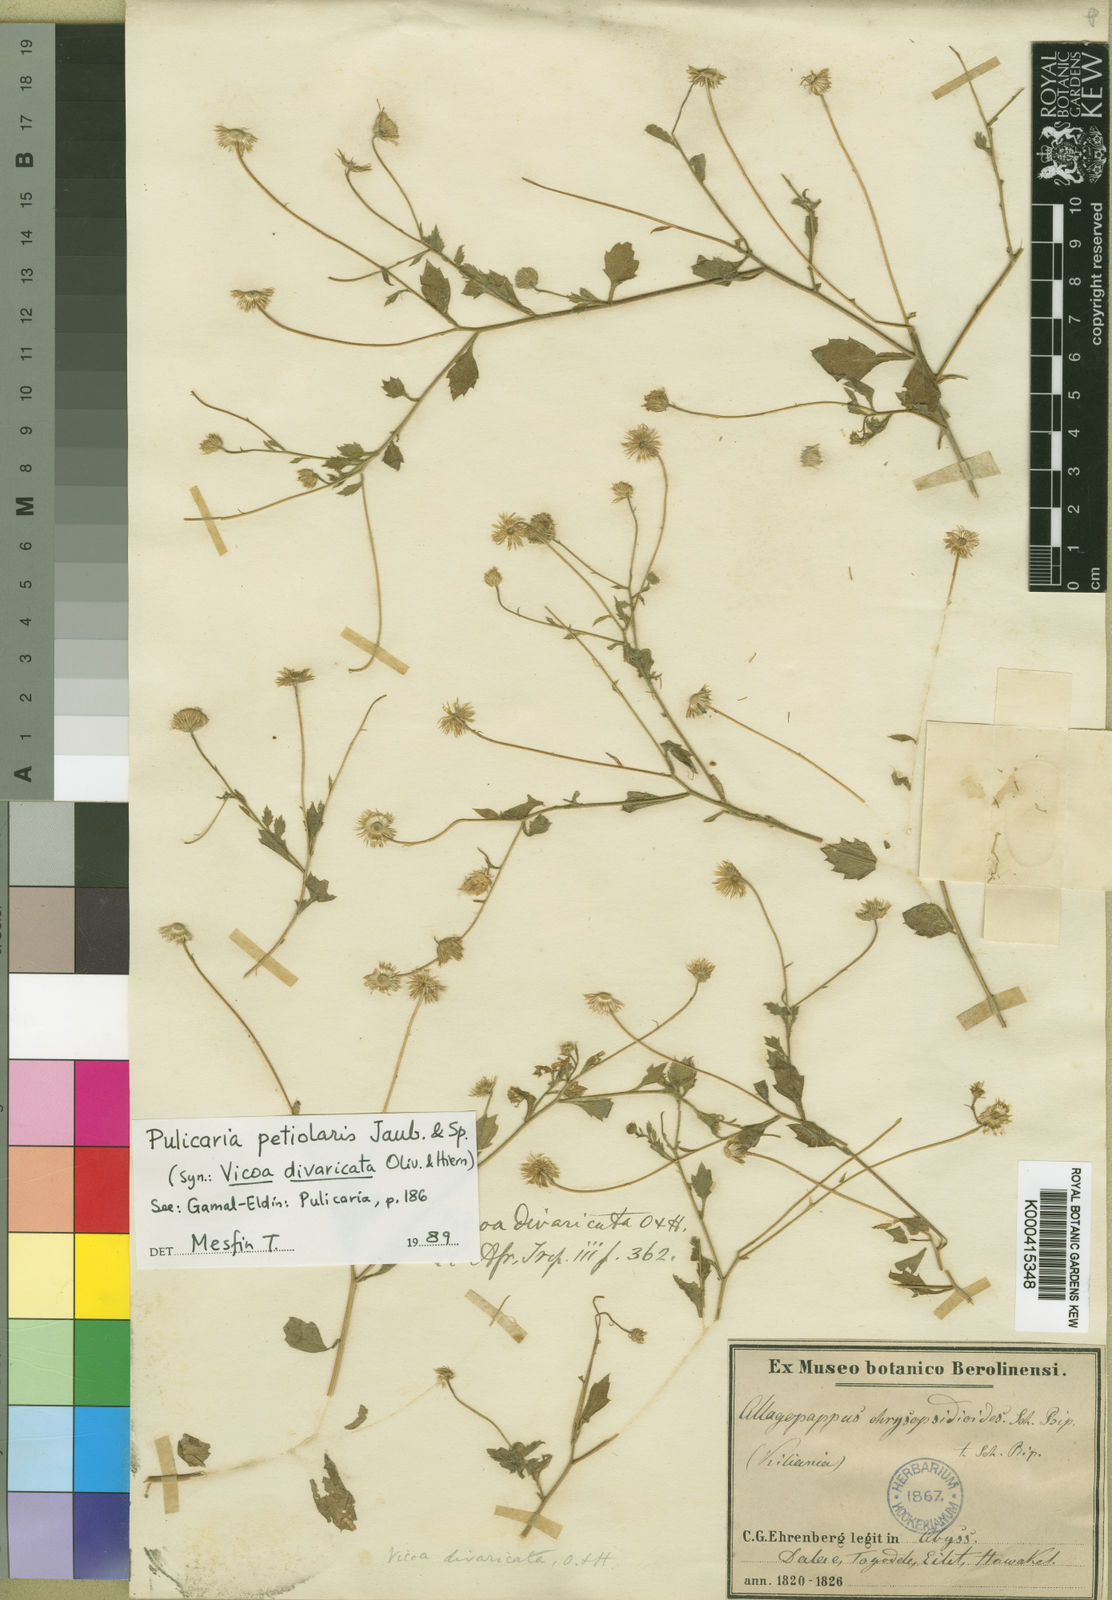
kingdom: Plantae
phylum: Tracheophyta
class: Magnoliopsida
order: Asterales
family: Asteraceae
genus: Pulicaria
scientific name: Pulicaria petiolaris
